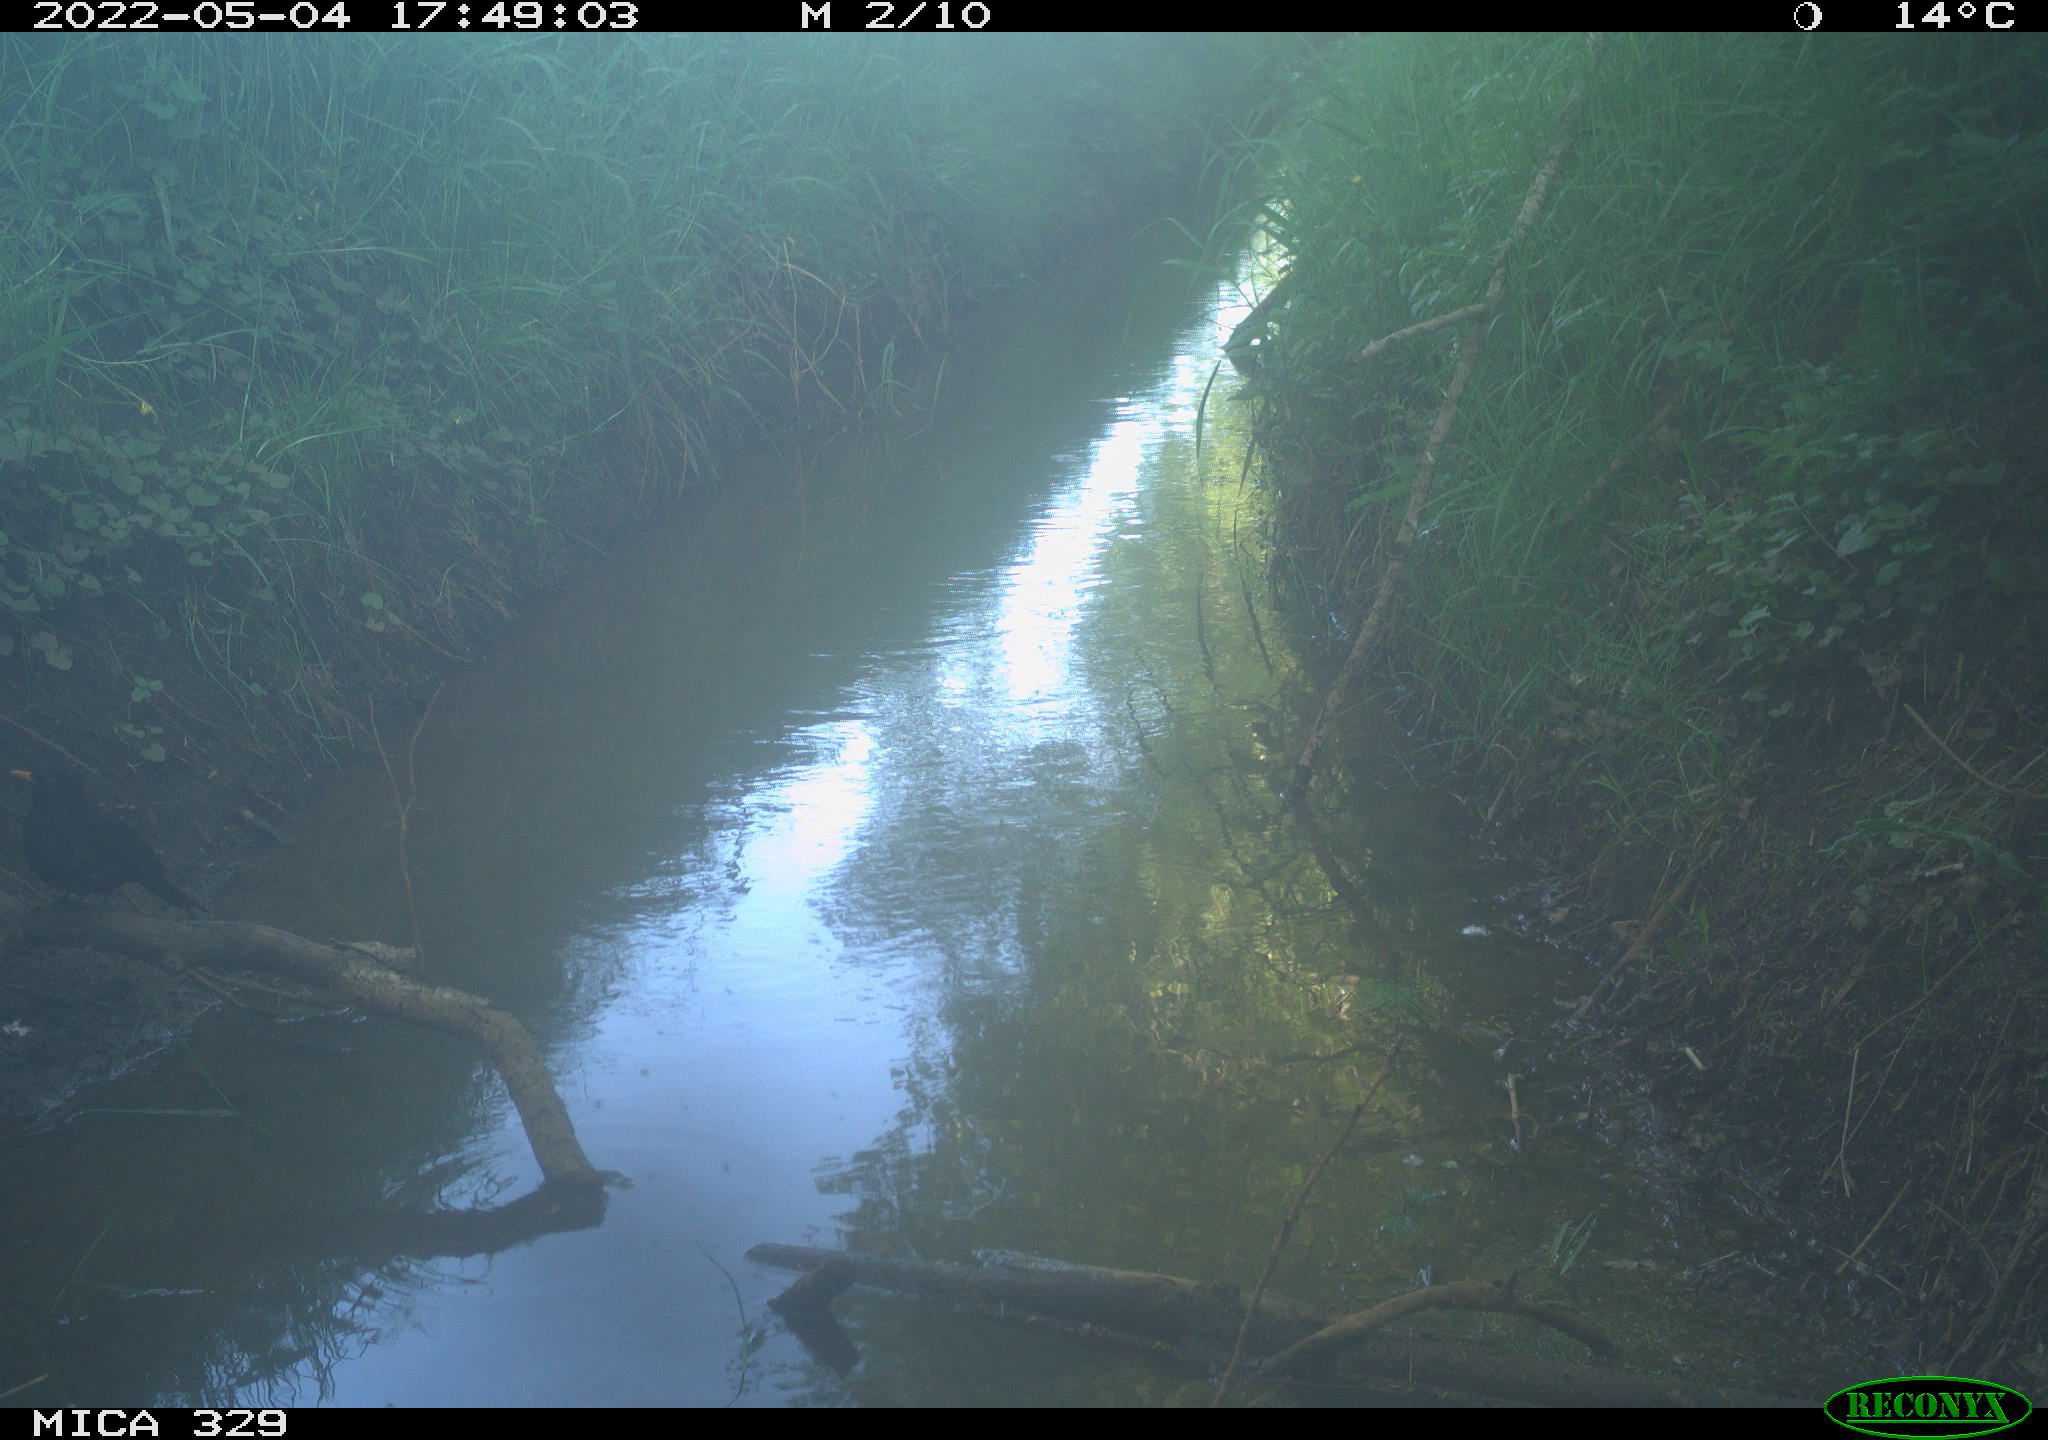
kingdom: Animalia
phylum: Chordata
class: Aves
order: Passeriformes
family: Turdidae
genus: Turdus
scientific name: Turdus merula
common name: Common blackbird
